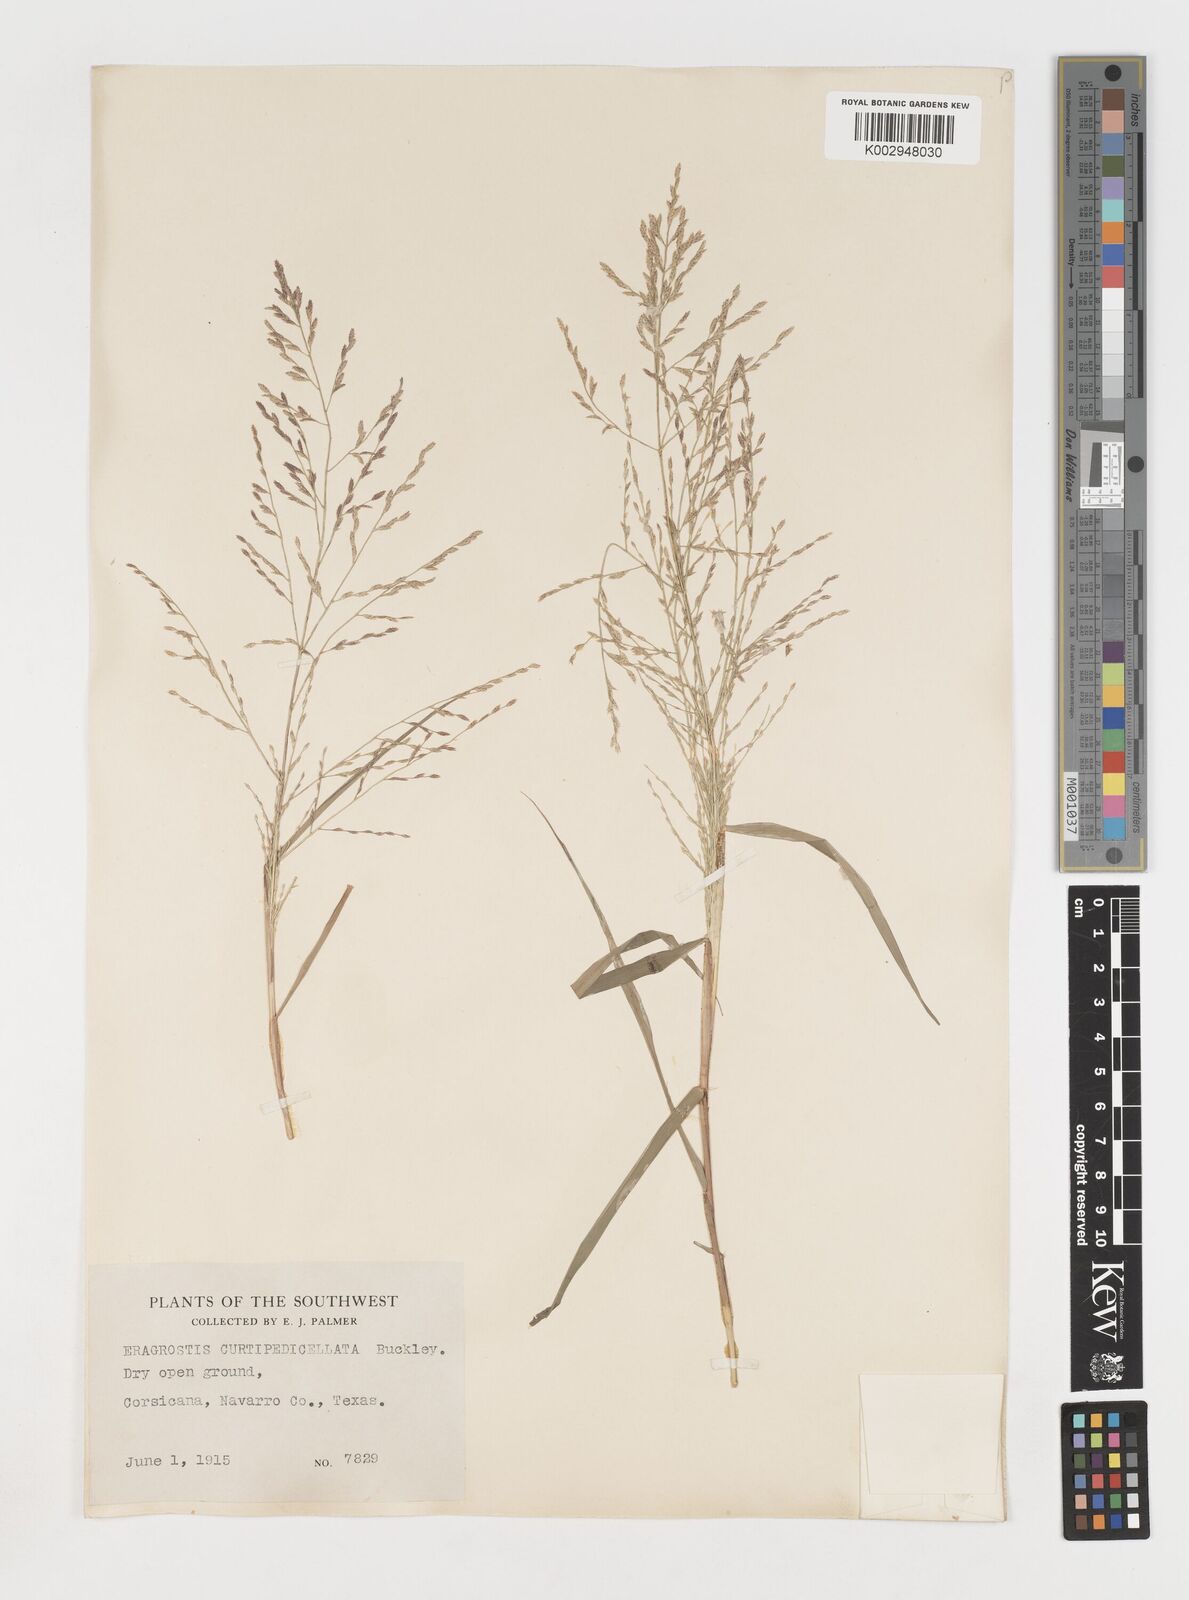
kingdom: Plantae
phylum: Tracheophyta
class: Liliopsida
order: Poales
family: Poaceae
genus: Eragrostis
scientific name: Eragrostis curtipedicellata
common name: Gummy love grass
